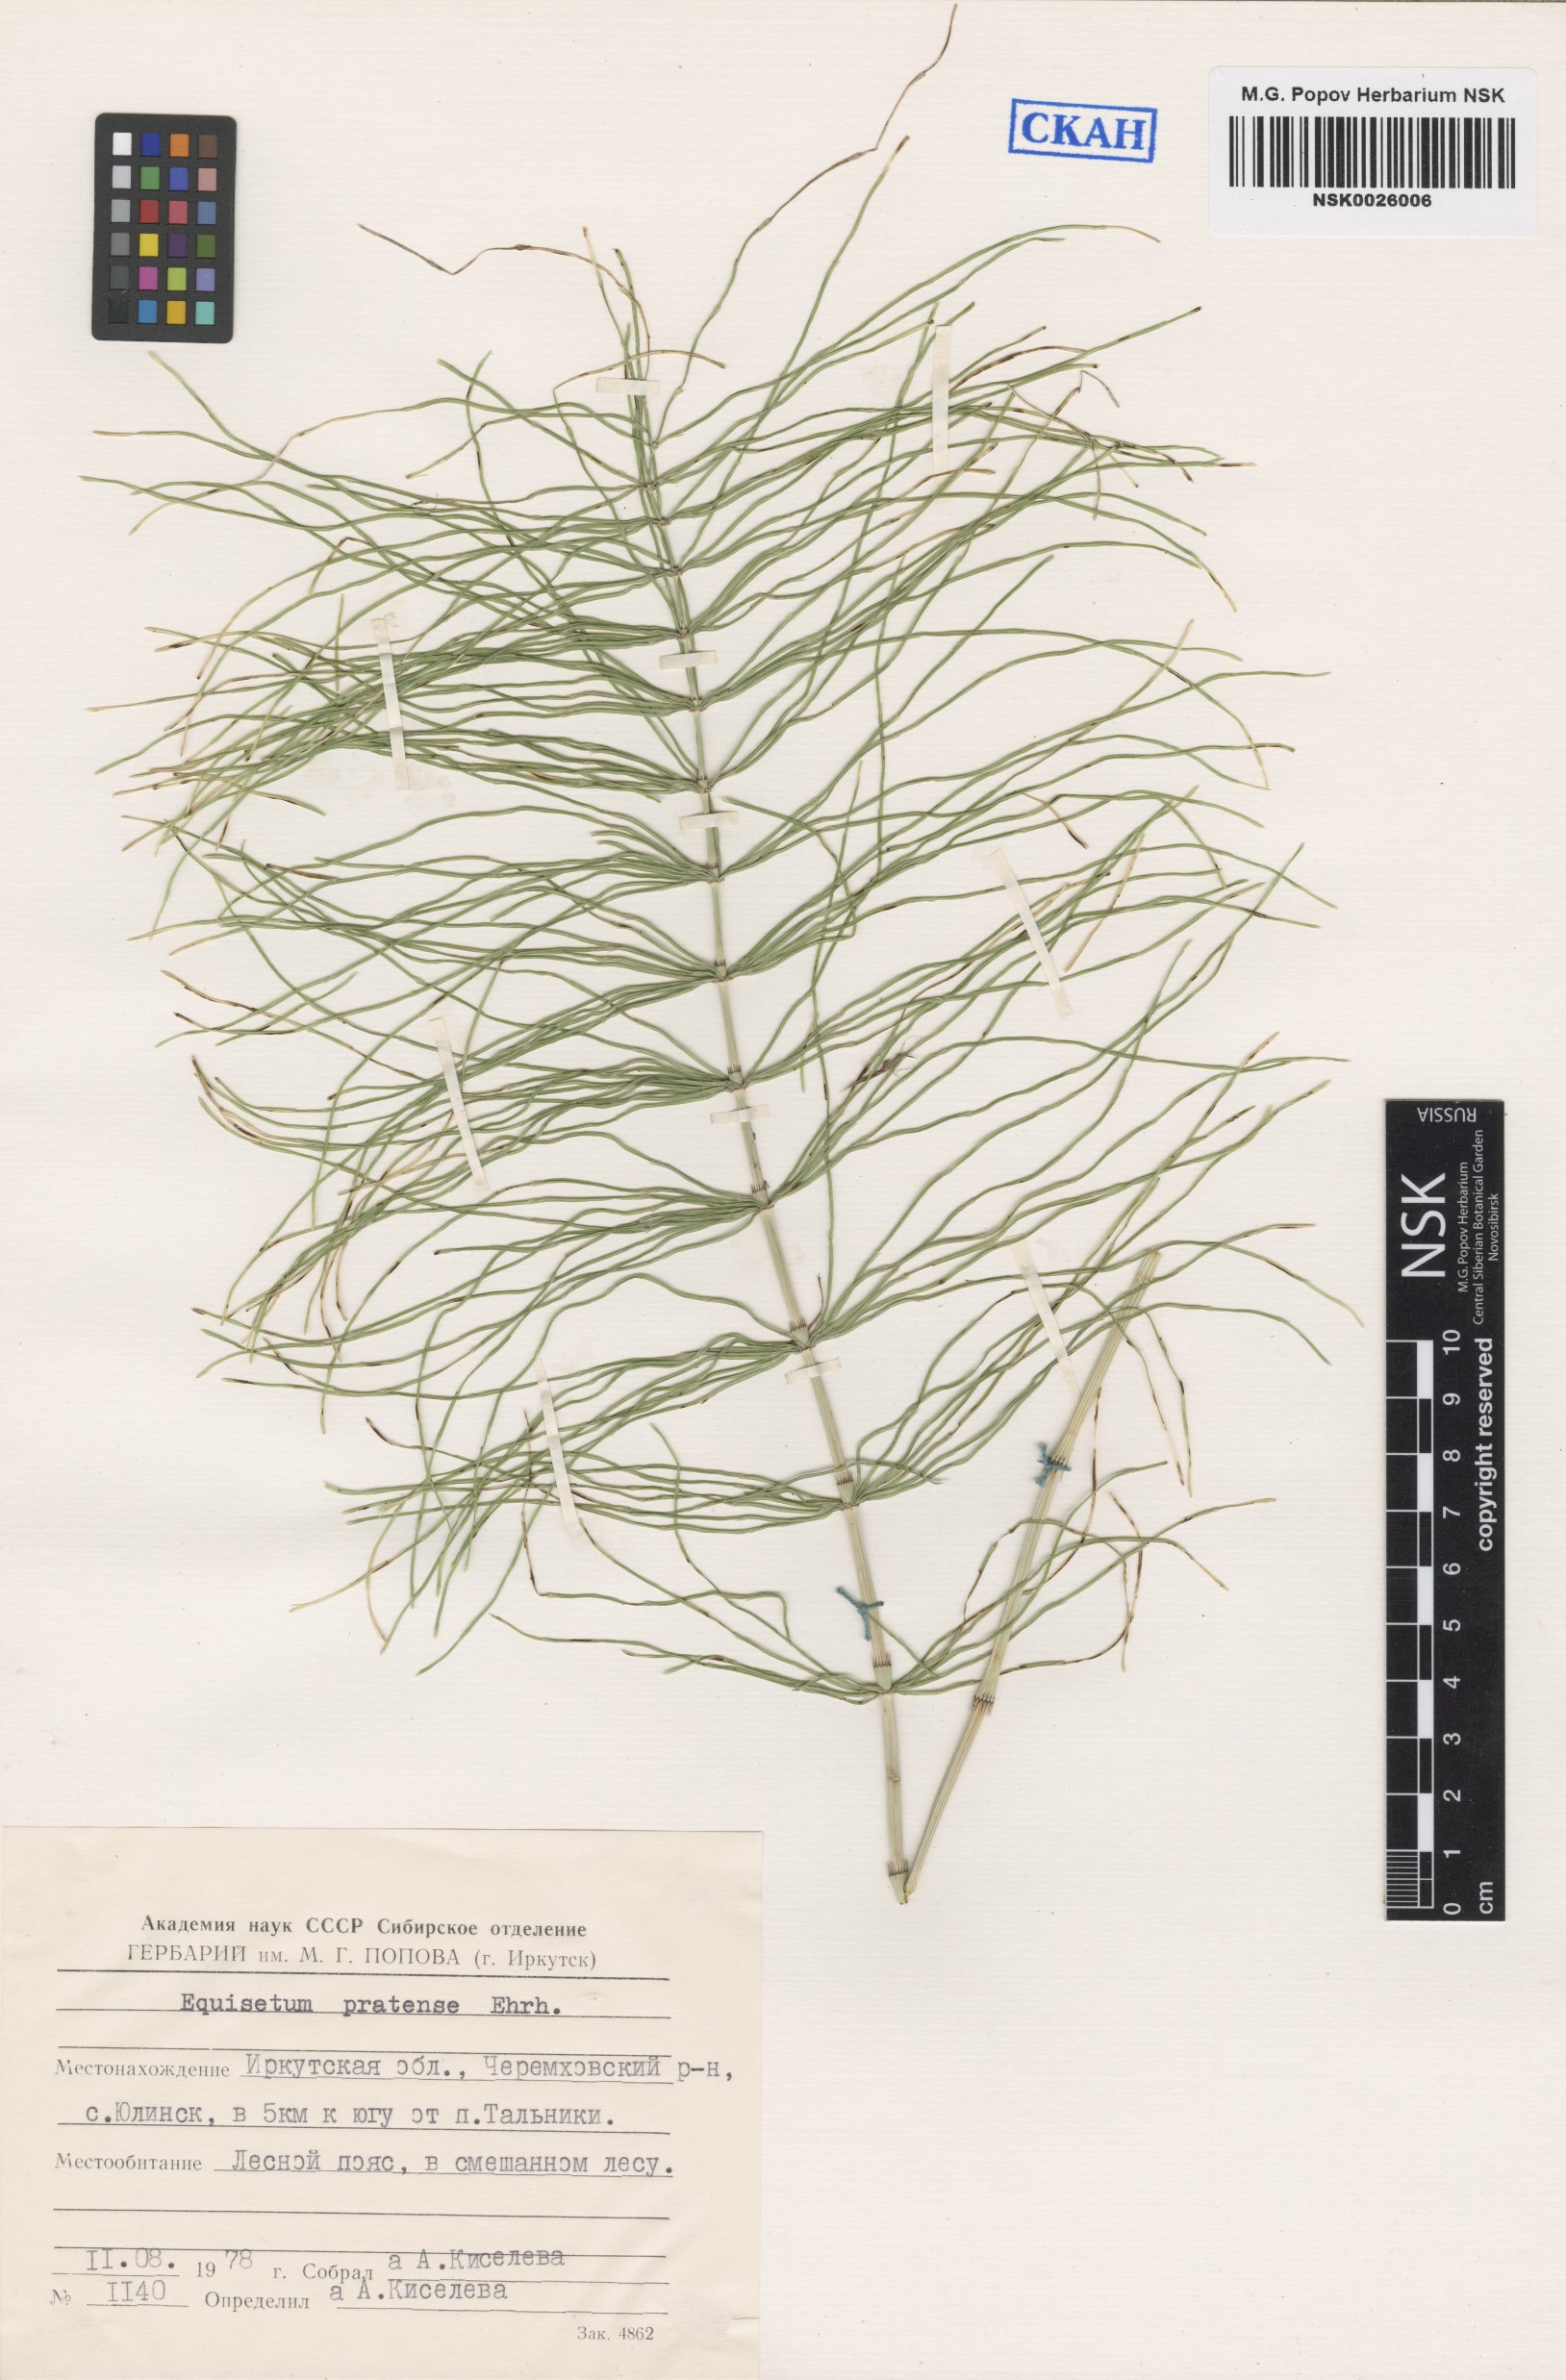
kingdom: Plantae
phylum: Tracheophyta
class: Polypodiopsida
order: Equisetales
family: Equisetaceae
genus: Equisetum
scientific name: Equisetum pratense
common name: Meadow horsetail
